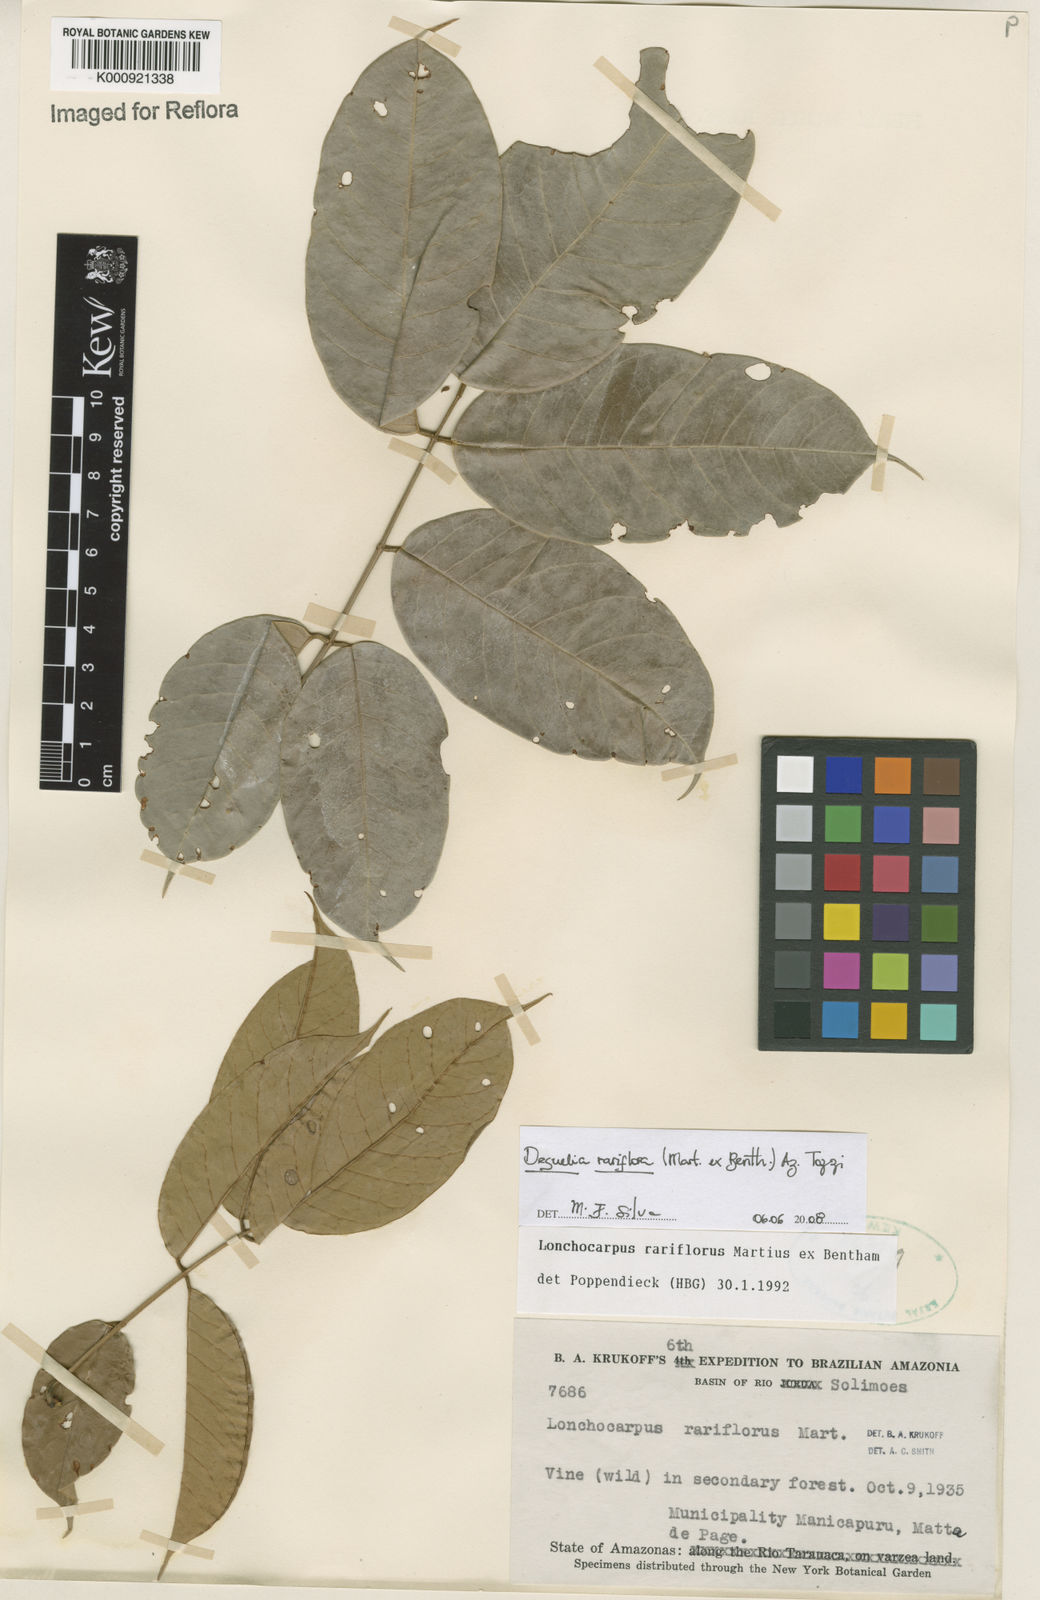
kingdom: Plantae
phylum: Tracheophyta
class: Magnoliopsida
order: Fabales
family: Fabaceae
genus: Deguelia
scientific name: Deguelia
